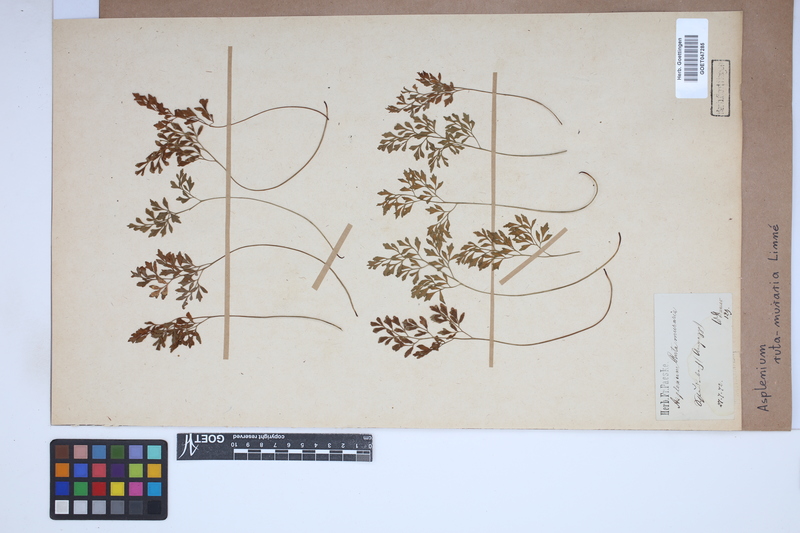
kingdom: Plantae
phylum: Tracheophyta
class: Polypodiopsida
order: Polypodiales
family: Aspleniaceae
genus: Asplenium
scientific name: Asplenium ruta-muraria
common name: Wall-rue
